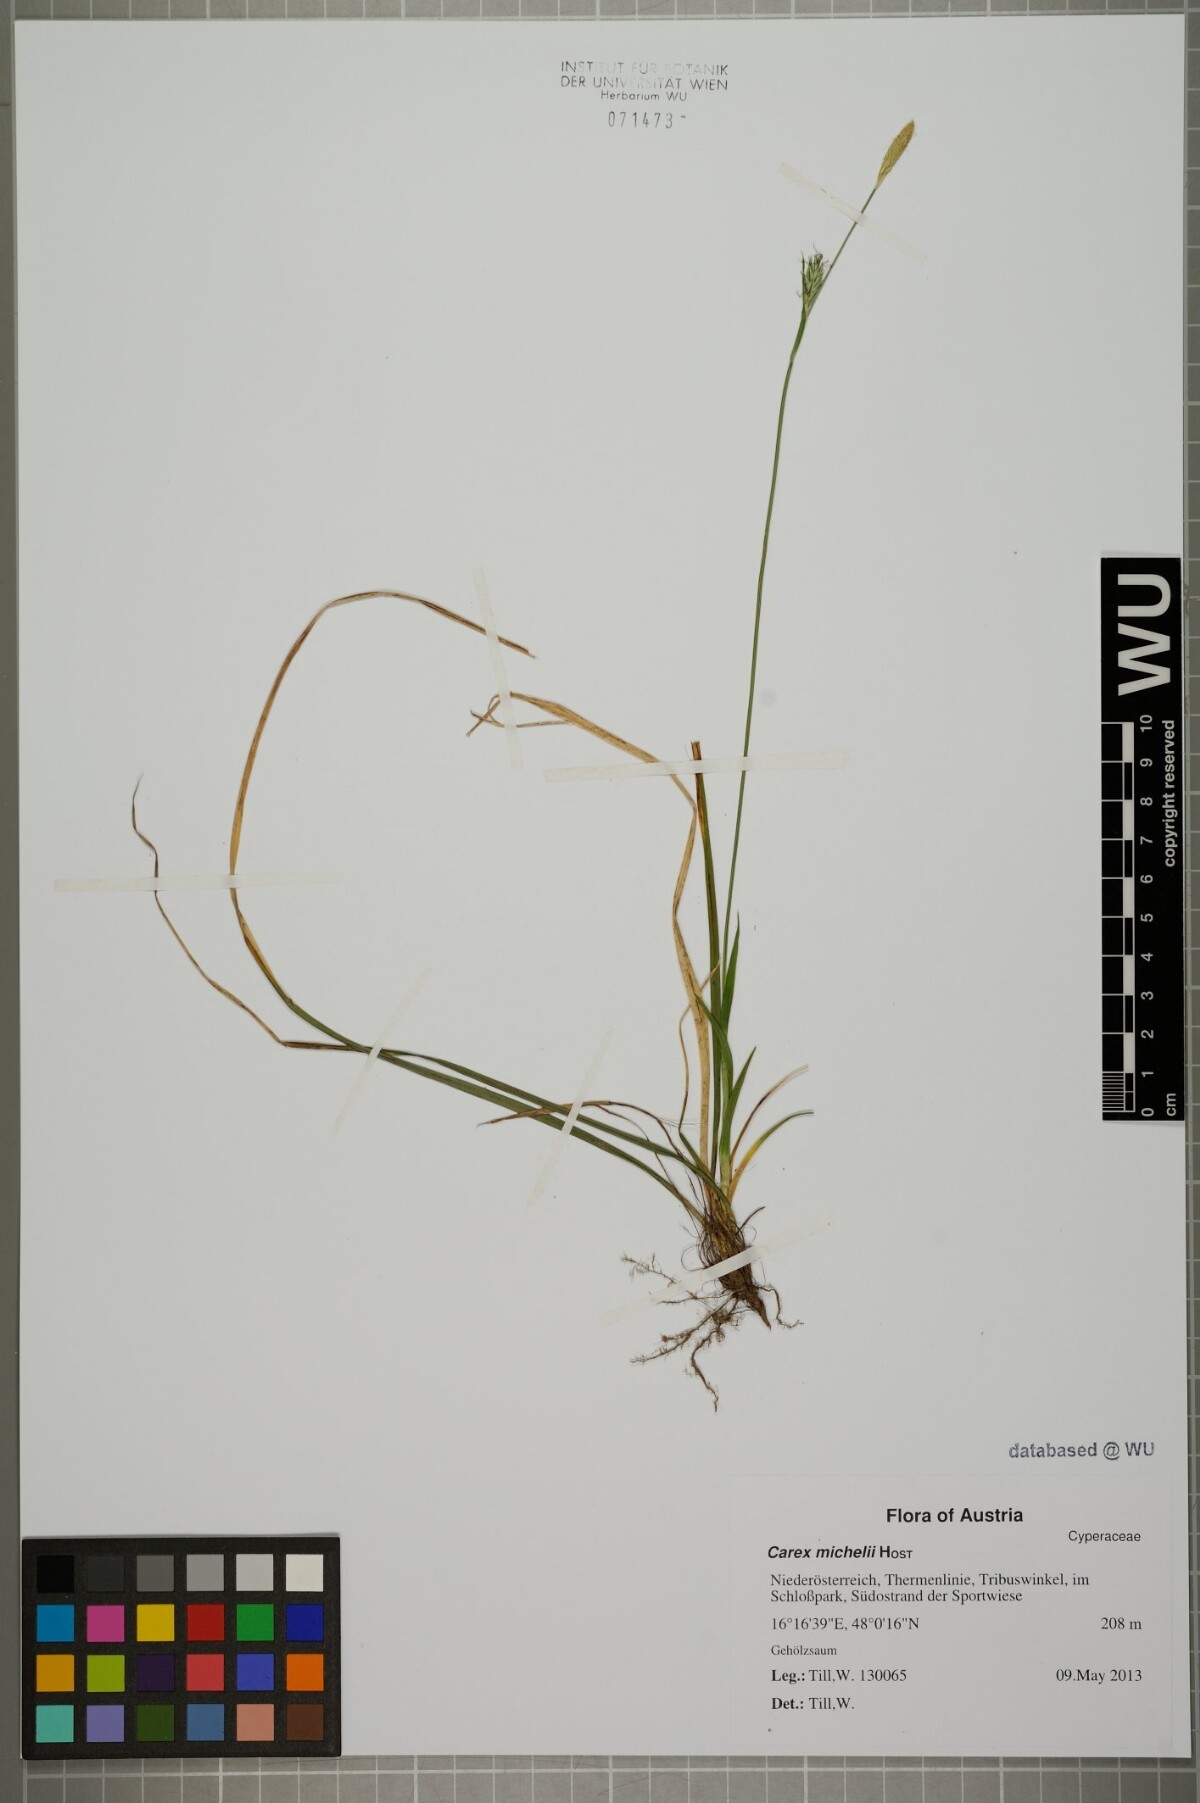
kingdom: Plantae
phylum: Tracheophyta
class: Liliopsida
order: Poales
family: Cyperaceae
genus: Carex
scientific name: Carex michelii
